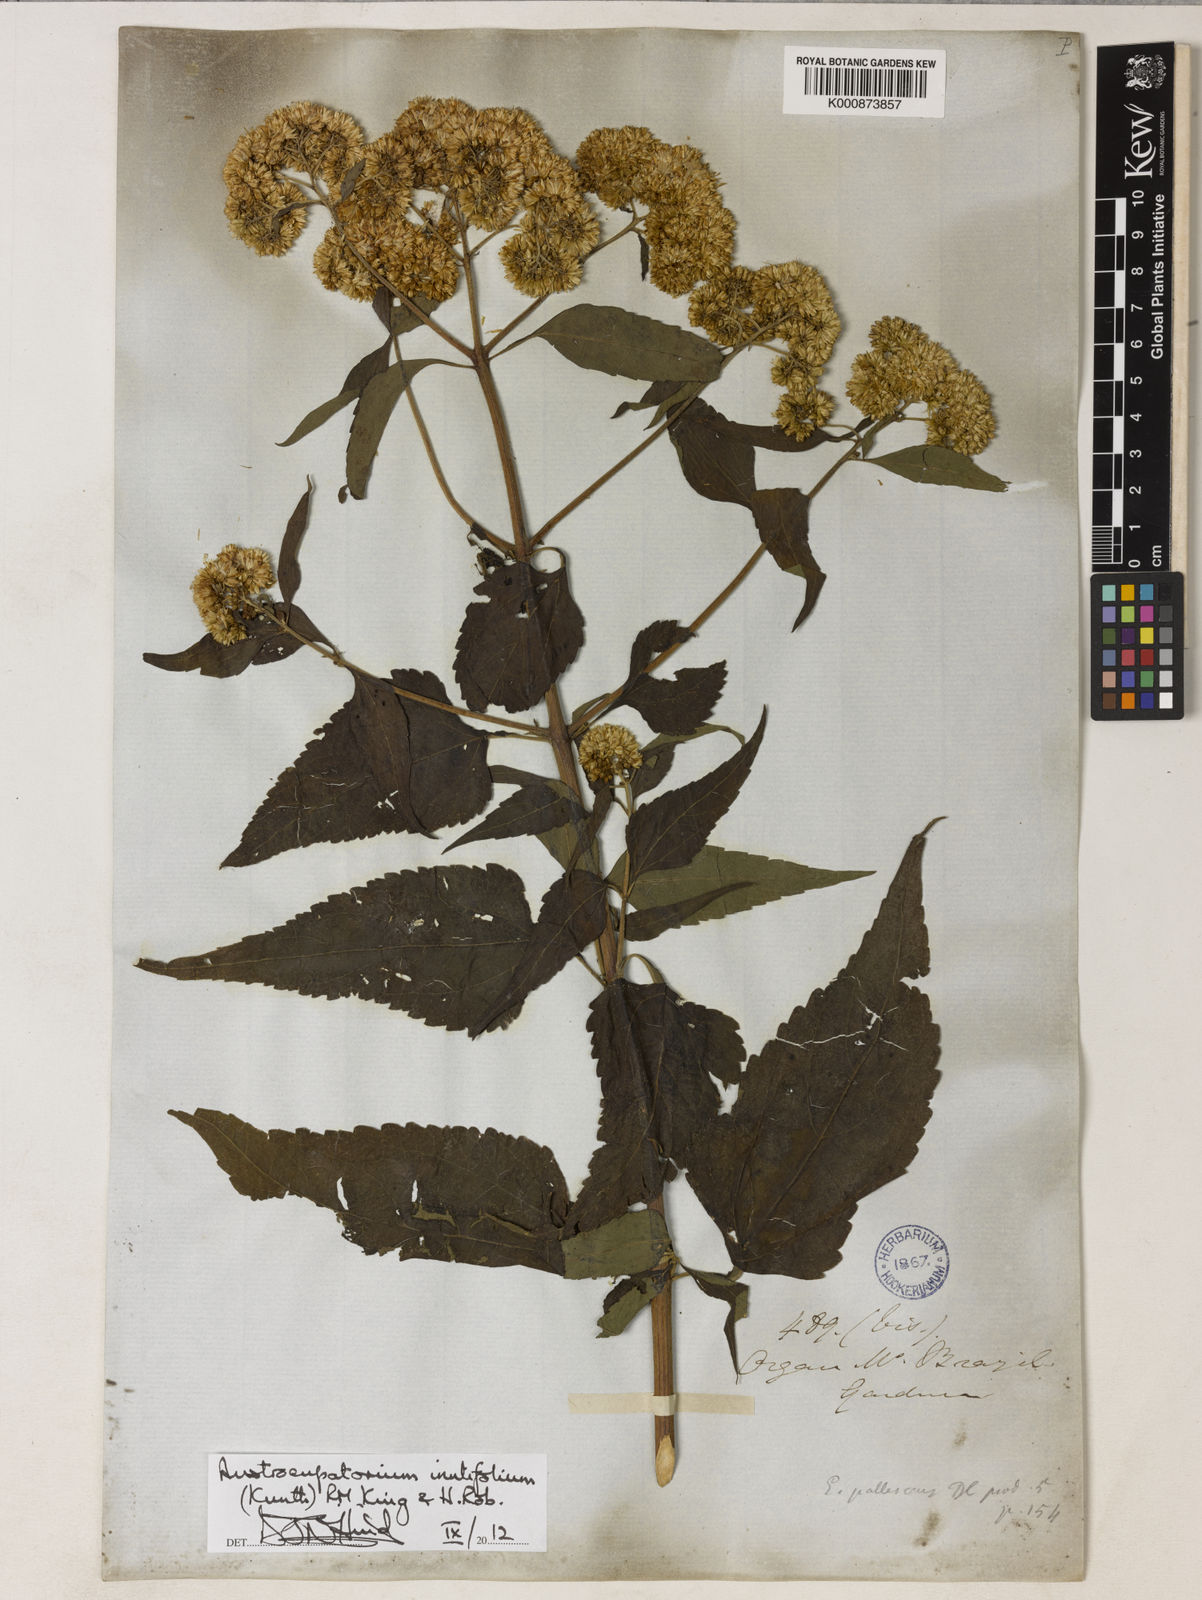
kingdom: Plantae
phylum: Tracheophyta
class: Magnoliopsida
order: Asterales
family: Asteraceae
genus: Austroeupatorium
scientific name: Austroeupatorium inulifolium
